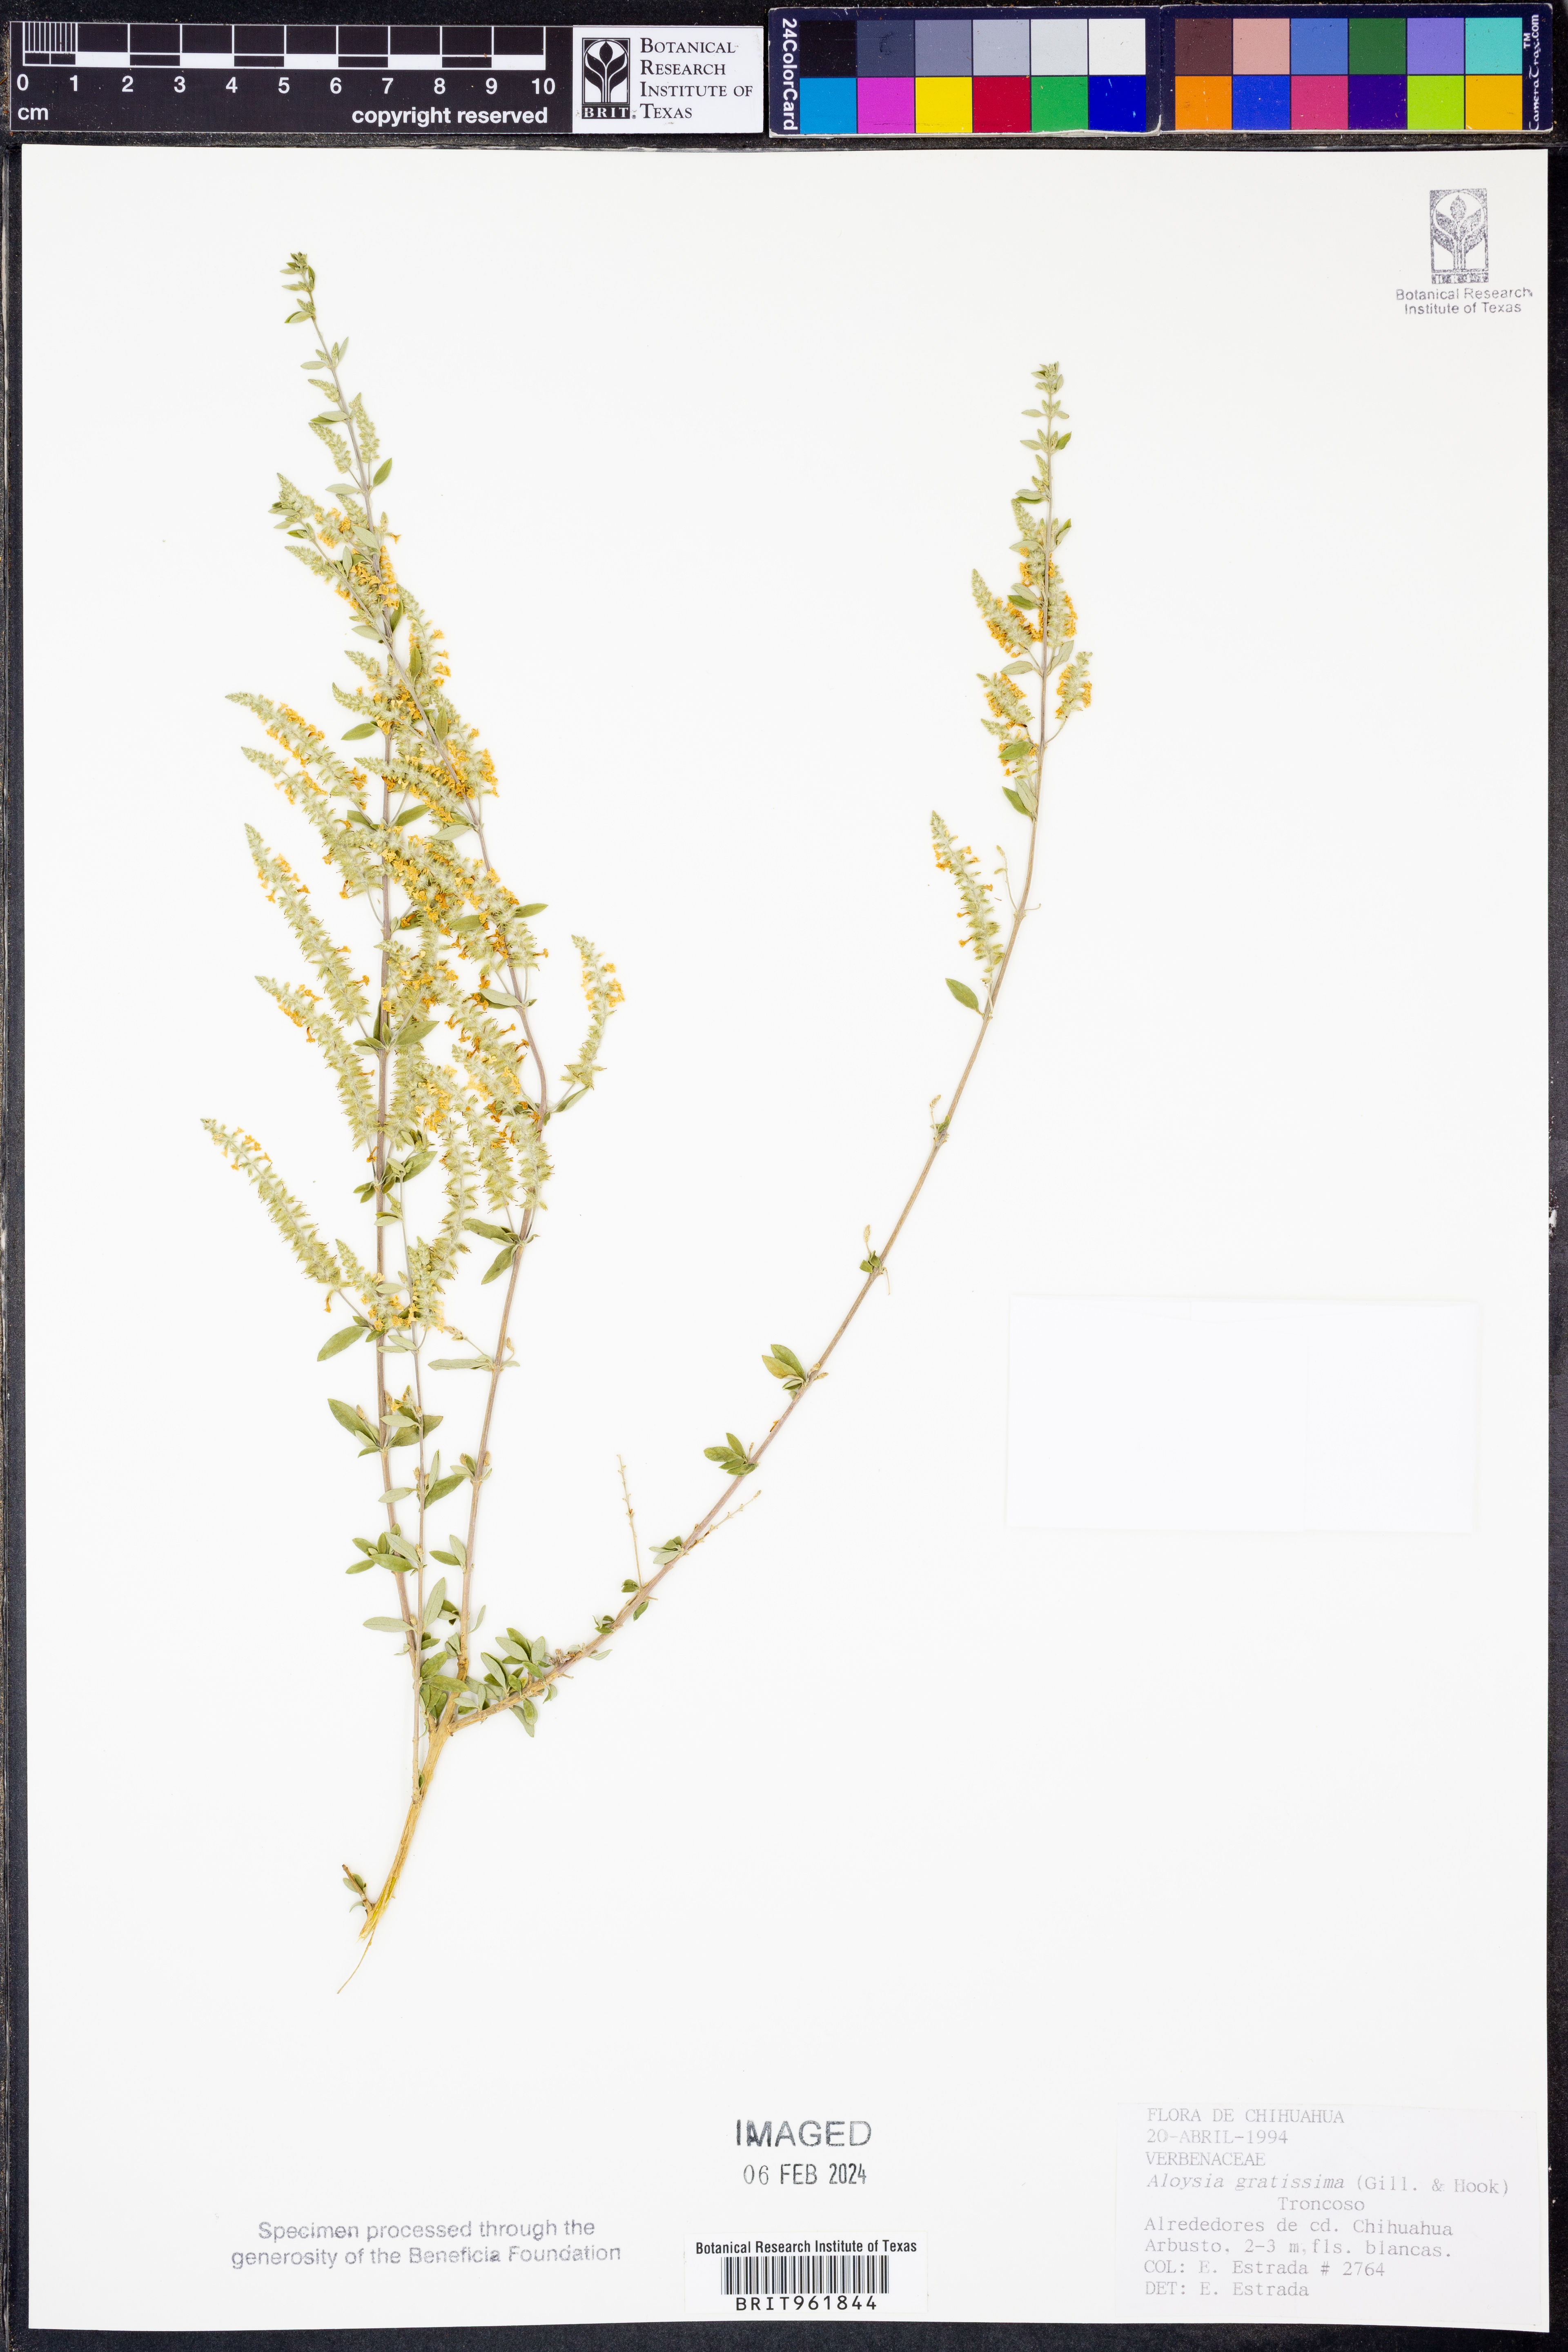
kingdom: Plantae
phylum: Tracheophyta
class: Magnoliopsida
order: Lamiales
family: Verbenaceae
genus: Aloysia
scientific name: Aloysia gratissima
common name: Common bee-brush
